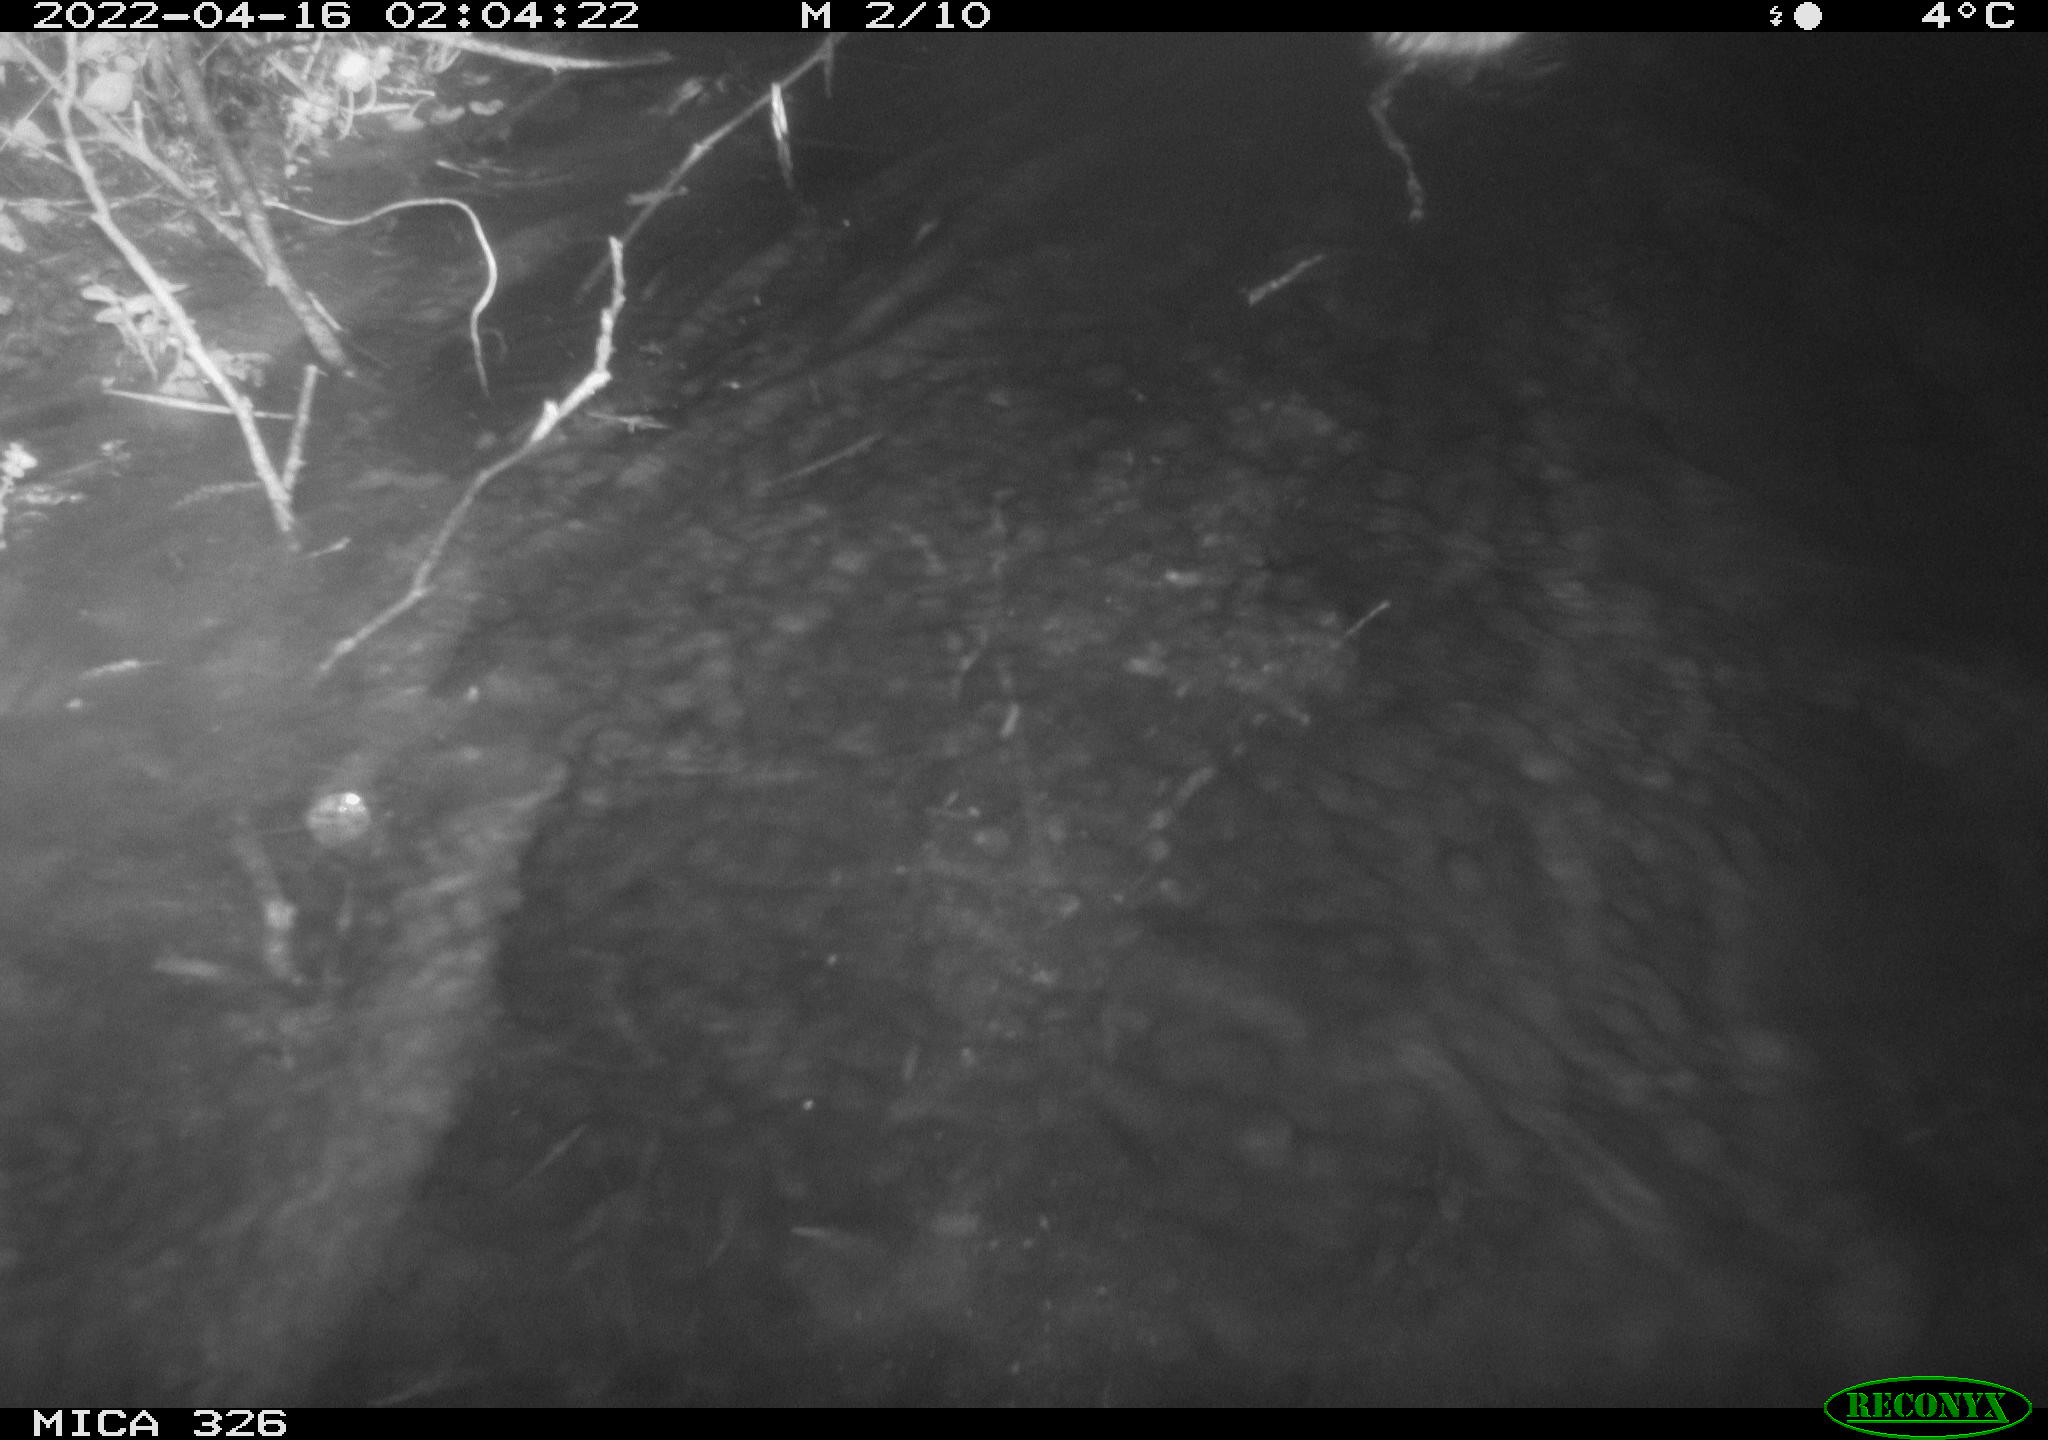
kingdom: Animalia
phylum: Chordata
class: Mammalia
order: Rodentia
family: Cricetidae
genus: Ondatra
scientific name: Ondatra zibethicus
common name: Muskrat
